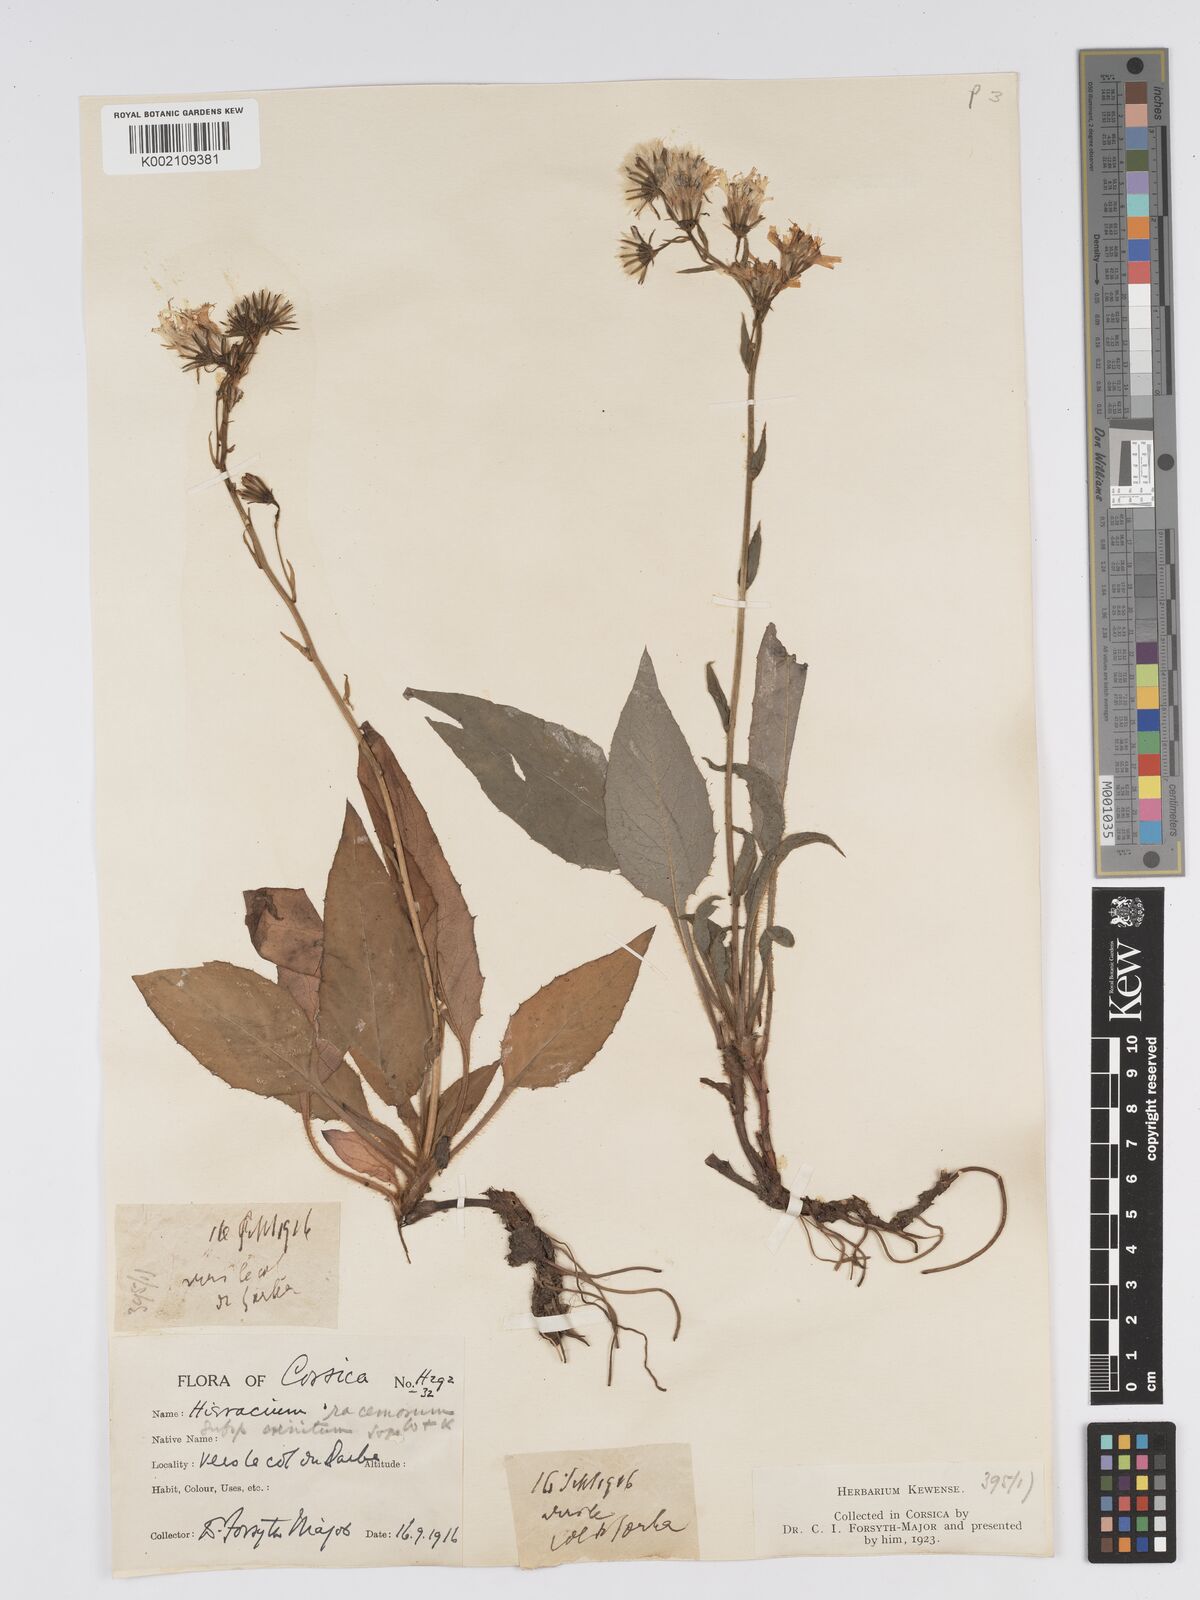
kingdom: Plantae
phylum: Tracheophyta
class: Magnoliopsida
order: Asterales
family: Asteraceae
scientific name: Asteraceae
